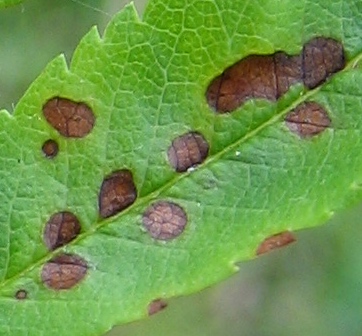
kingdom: Fungi
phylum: Ascomycota
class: Dothideomycetes
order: Venturiales
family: Venturiaceae
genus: Venturia
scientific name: Venturia inaequalis
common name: Apple scab
